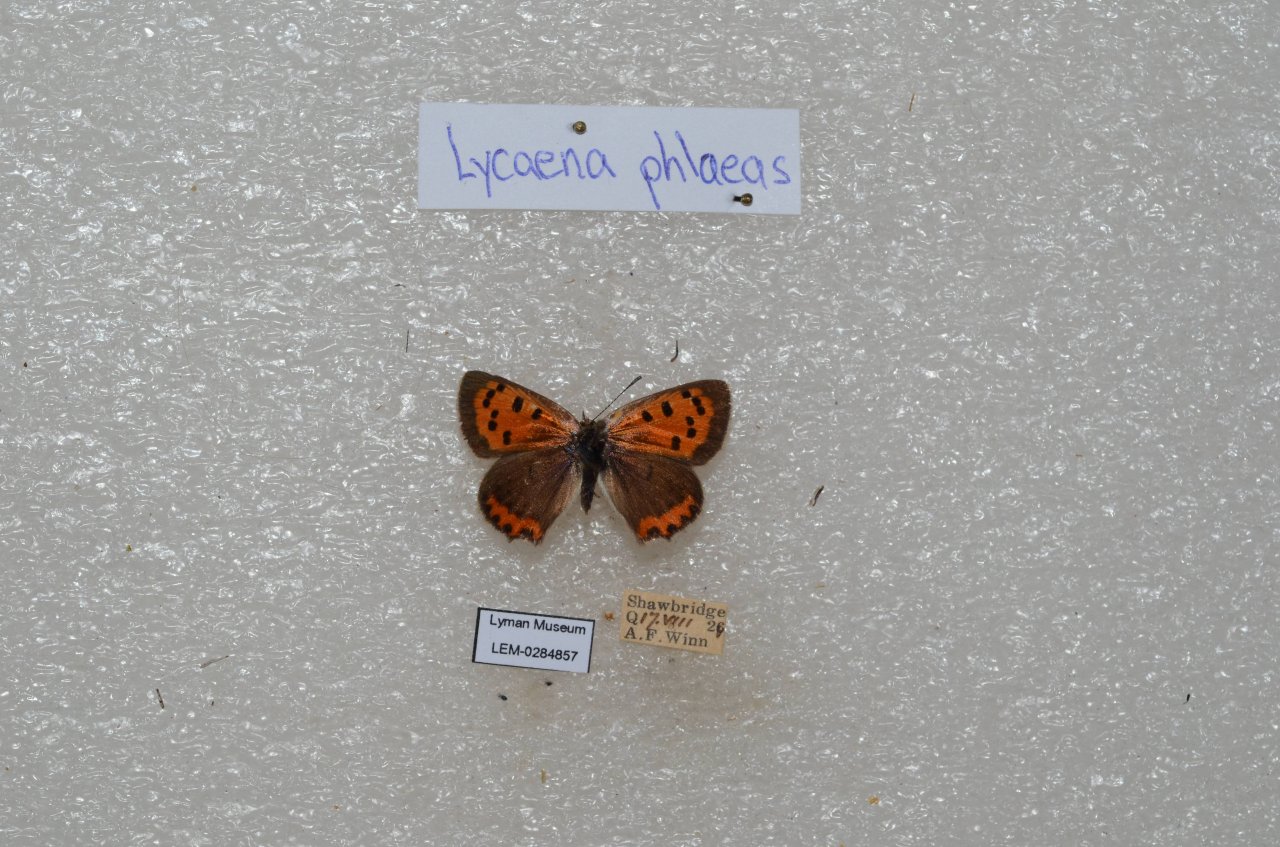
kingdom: Animalia
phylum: Arthropoda
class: Insecta
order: Lepidoptera
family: Lycaenidae
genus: Lycaena
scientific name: Lycaena phlaeas
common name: American Copper
